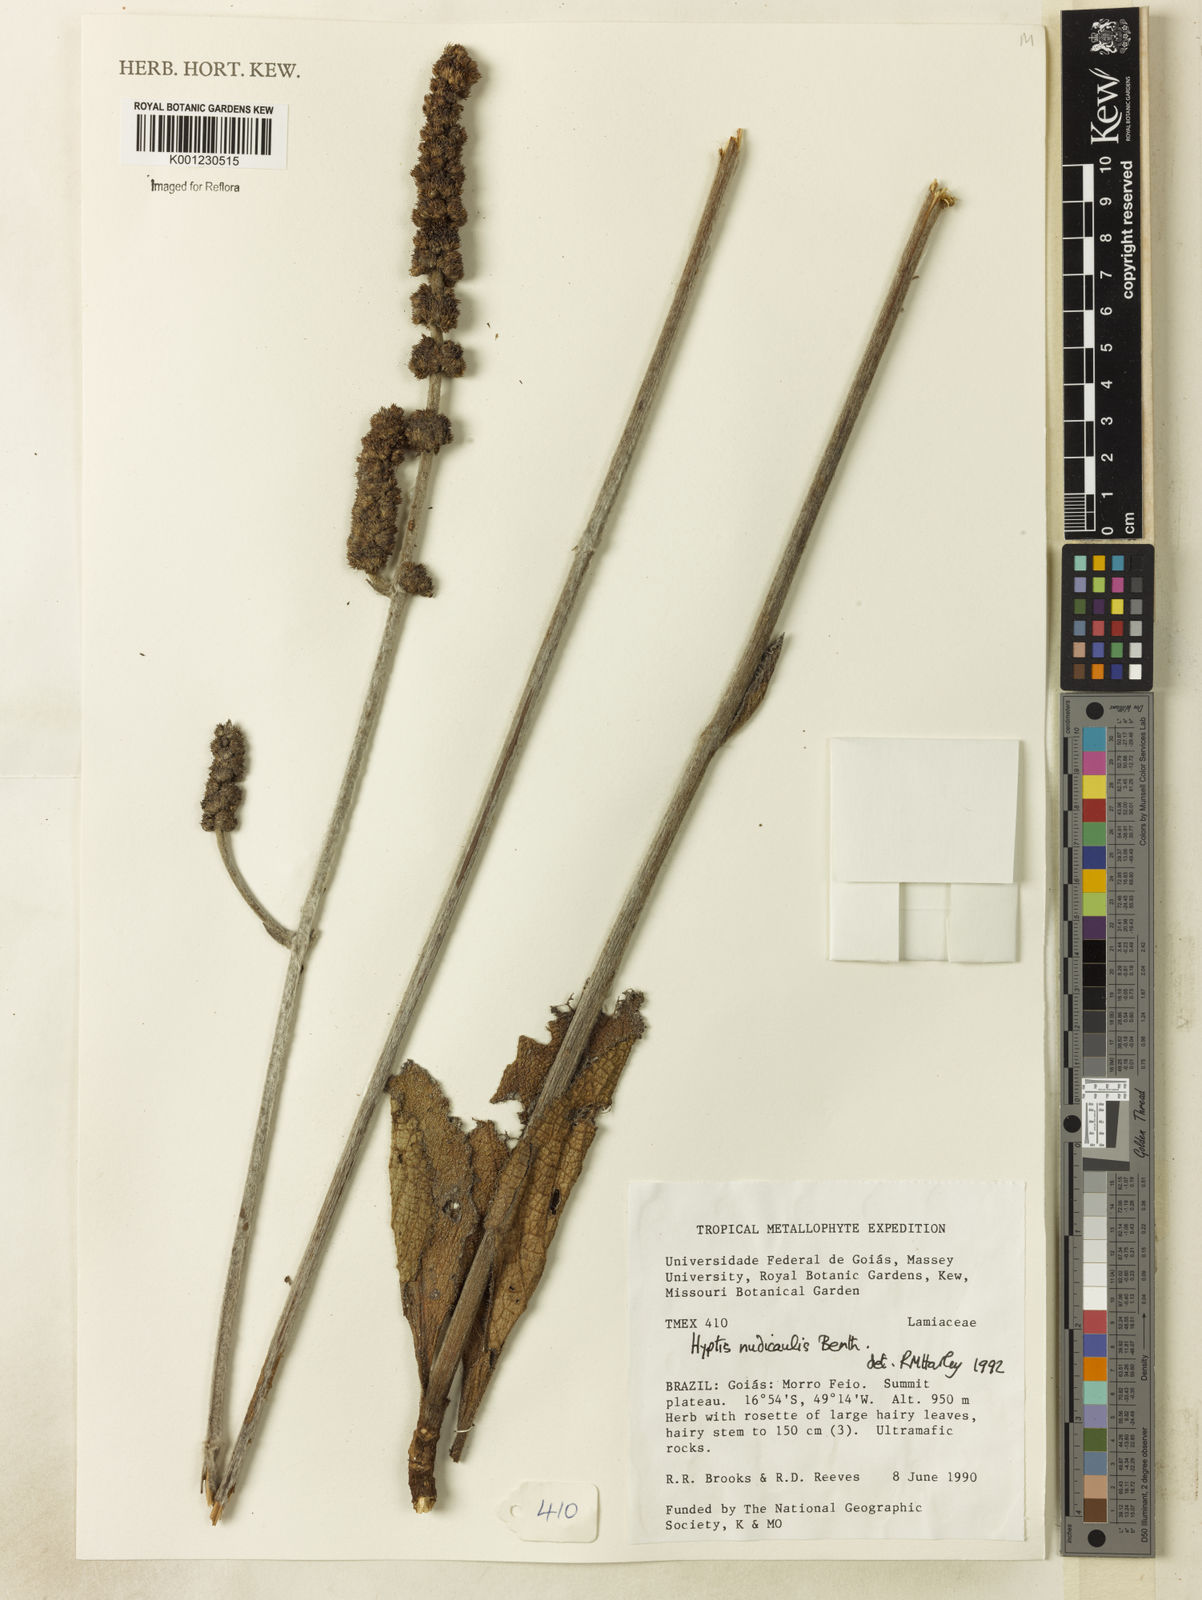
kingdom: Plantae
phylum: Tracheophyta
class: Magnoliopsida
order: Lamiales
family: Lamiaceae
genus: Hyptis
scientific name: Hyptis nudicaulis
